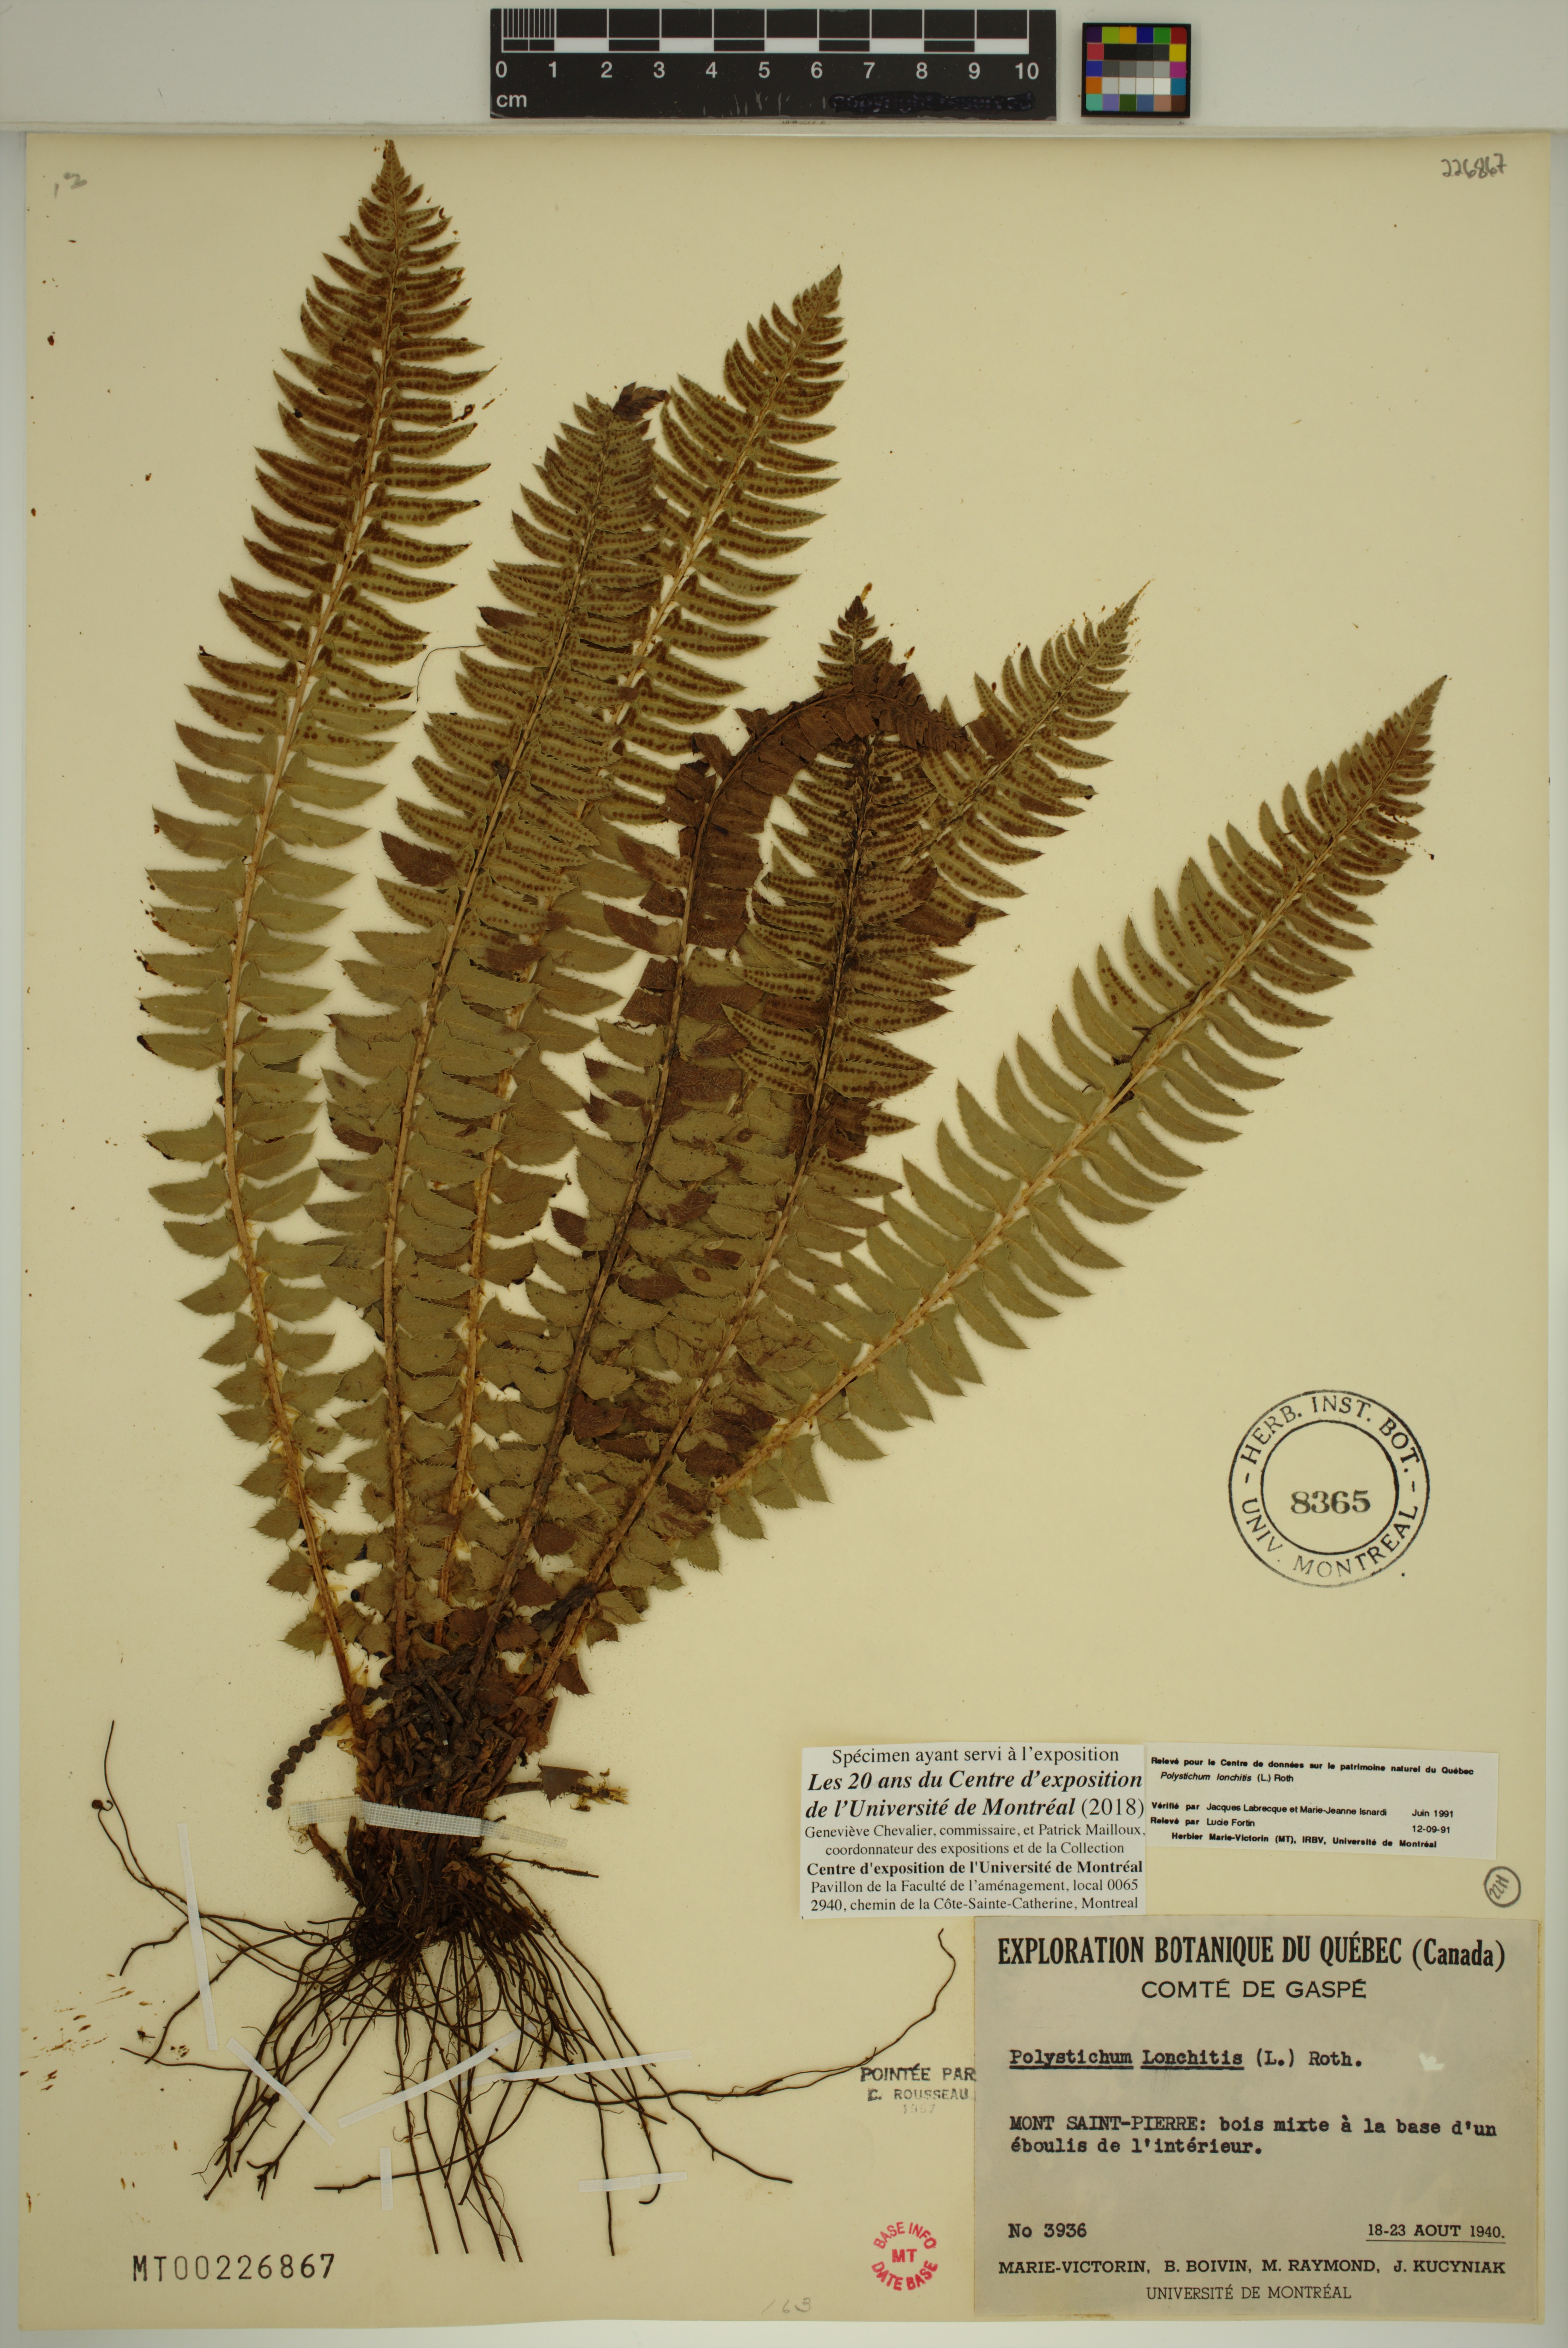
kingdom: Plantae
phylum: Tracheophyta
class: Polypodiopsida
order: Polypodiales
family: Dryopteridaceae
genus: Polystichum
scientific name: Polystichum lonchitis
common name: Holly fern
